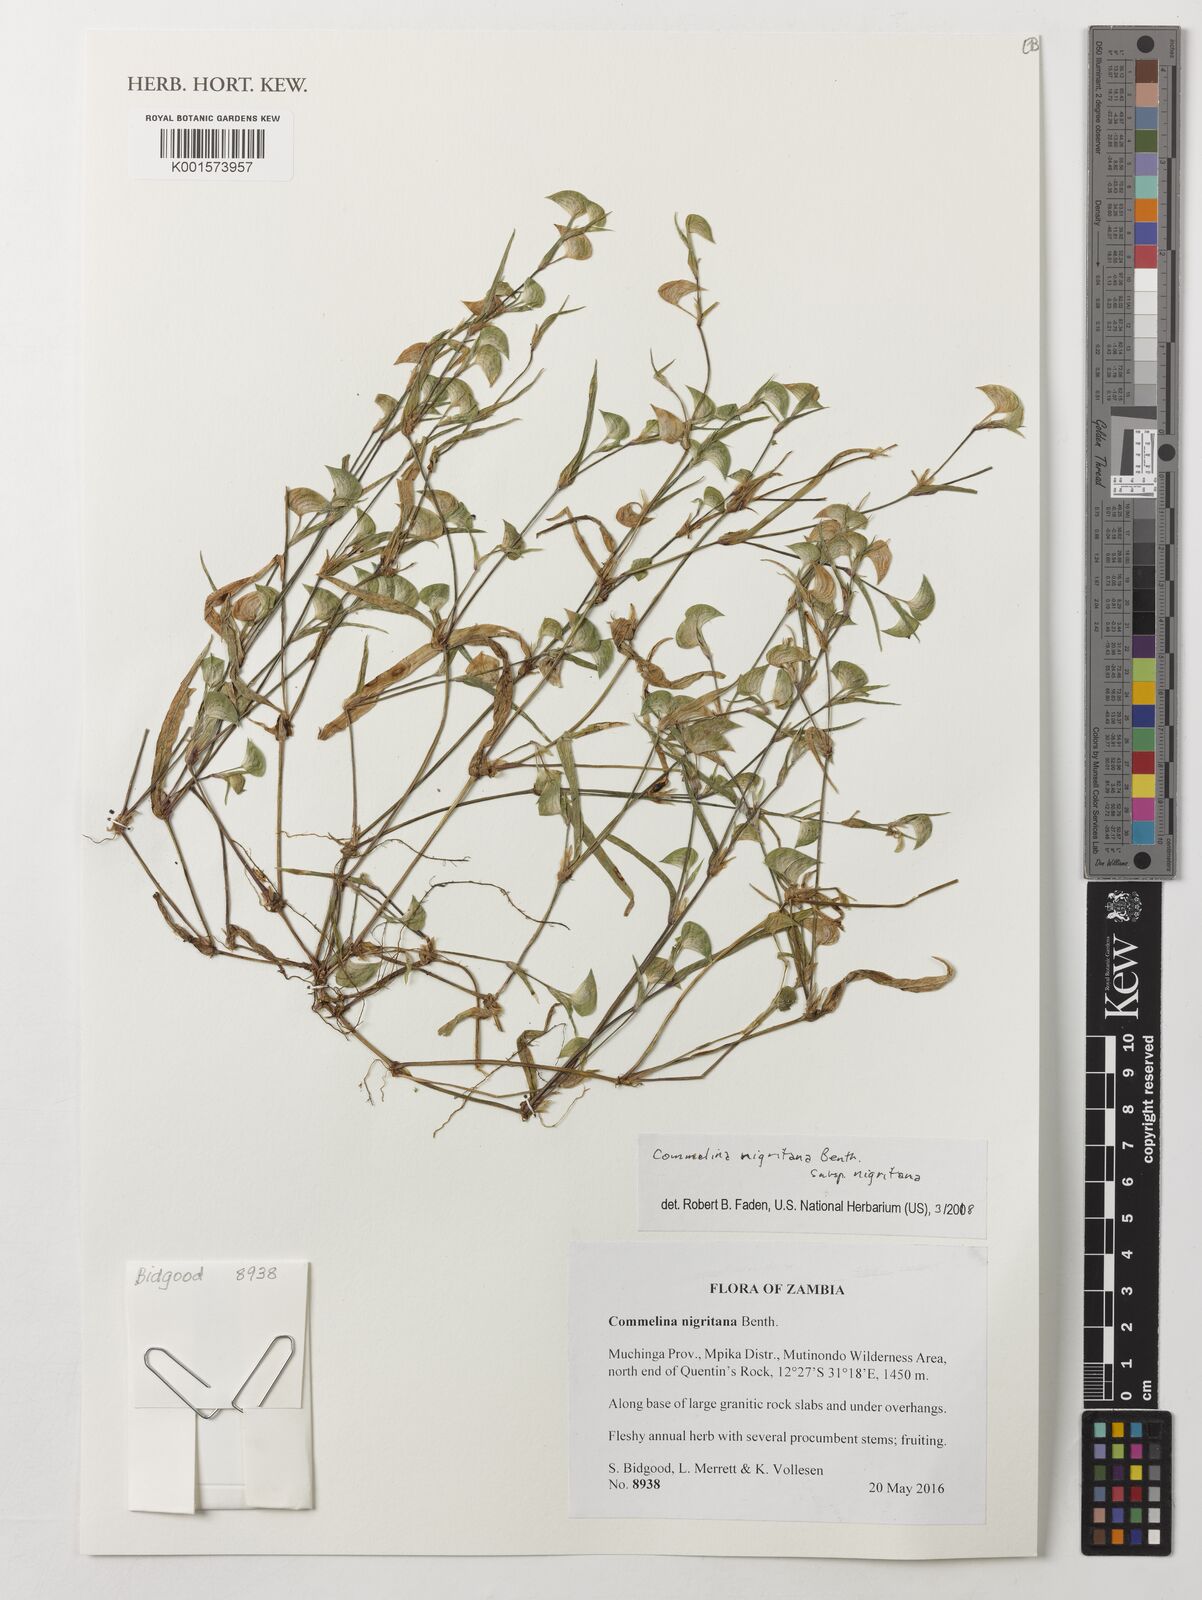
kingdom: Plantae
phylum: Tracheophyta
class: Liliopsida
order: Commelinales
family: Commelinaceae
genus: Commelina
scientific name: Commelina nigritana
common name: African dayflower
